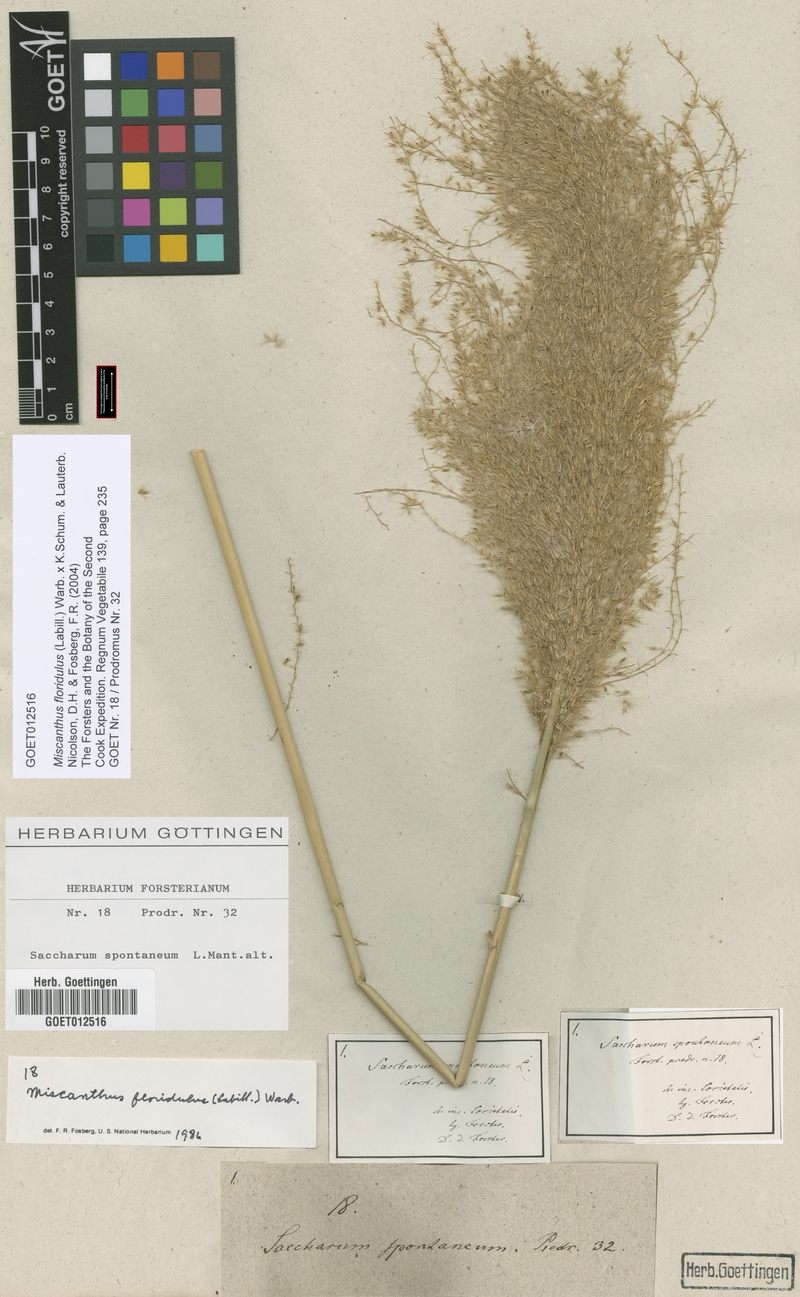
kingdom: Plantae
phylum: Tracheophyta
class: Liliopsida
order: Poales
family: Poaceae
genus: Miscanthus
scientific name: Miscanthus floridulus
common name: Pacific island silvergrass
